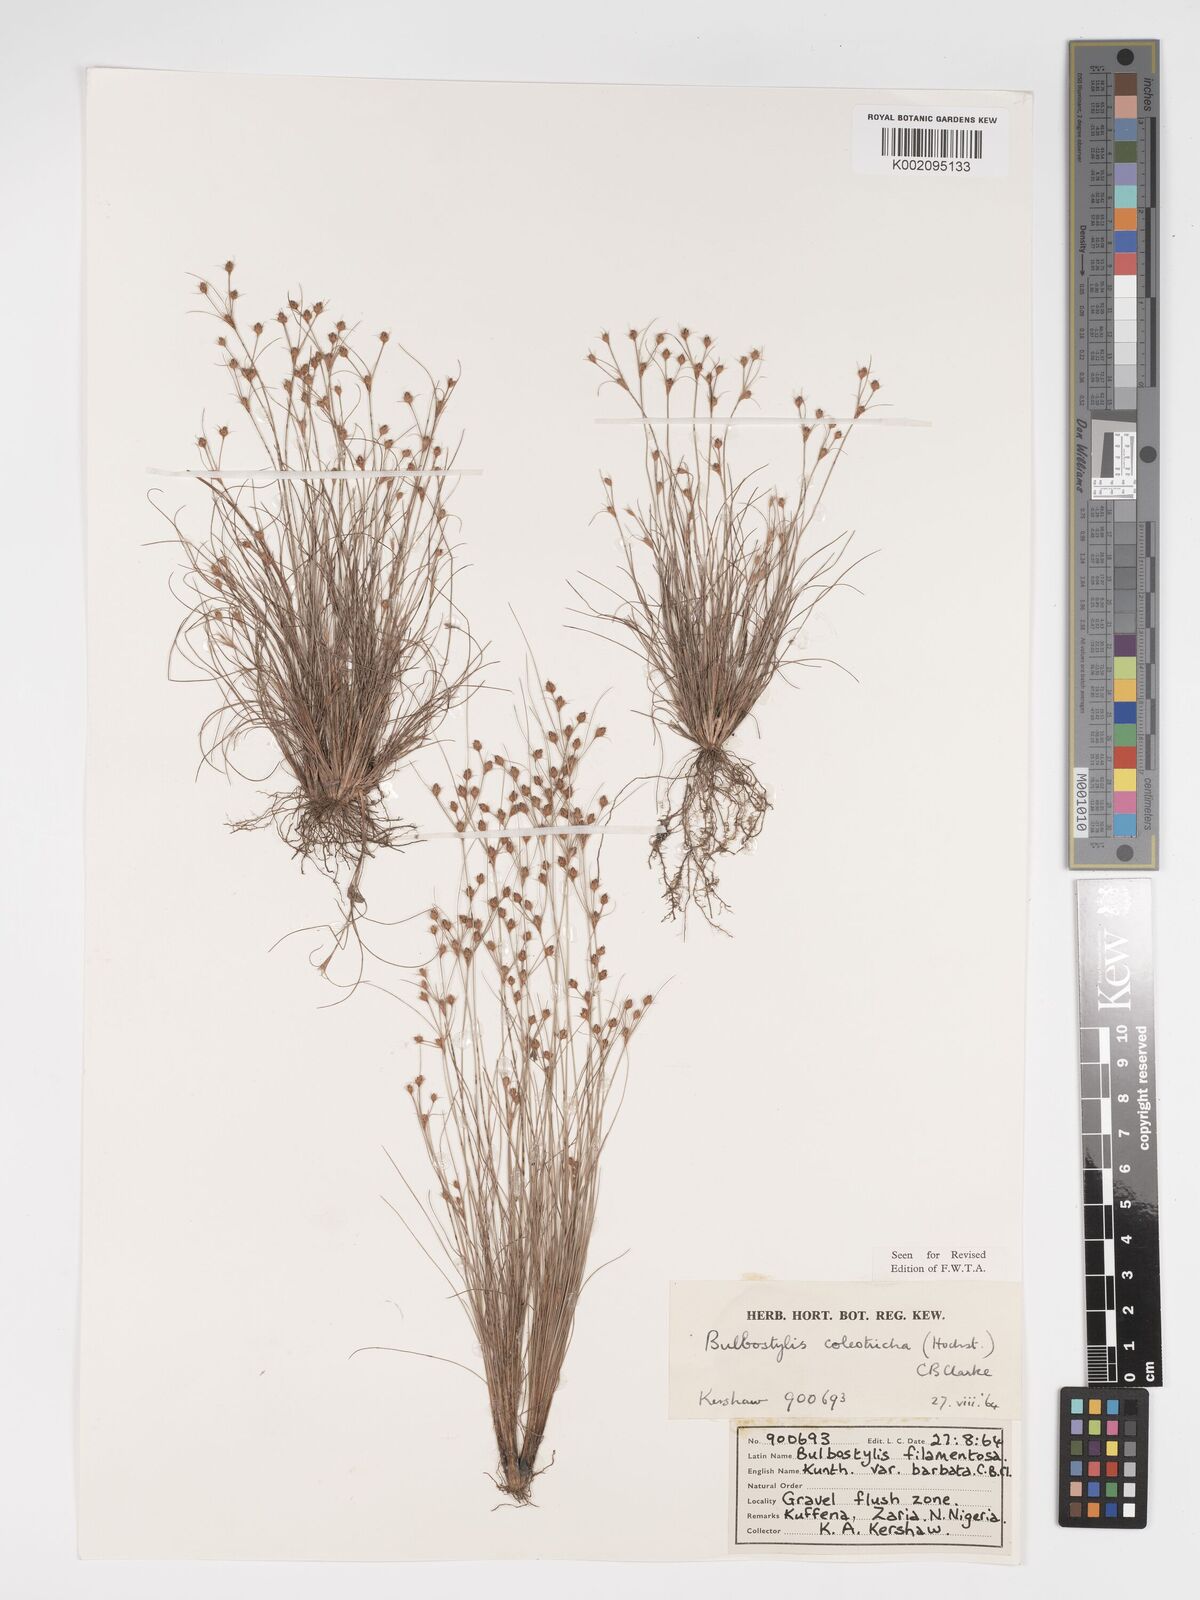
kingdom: Plantae
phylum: Tracheophyta
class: Liliopsida
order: Poales
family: Cyperaceae
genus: Bulbostylis
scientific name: Bulbostylis coleotricha
